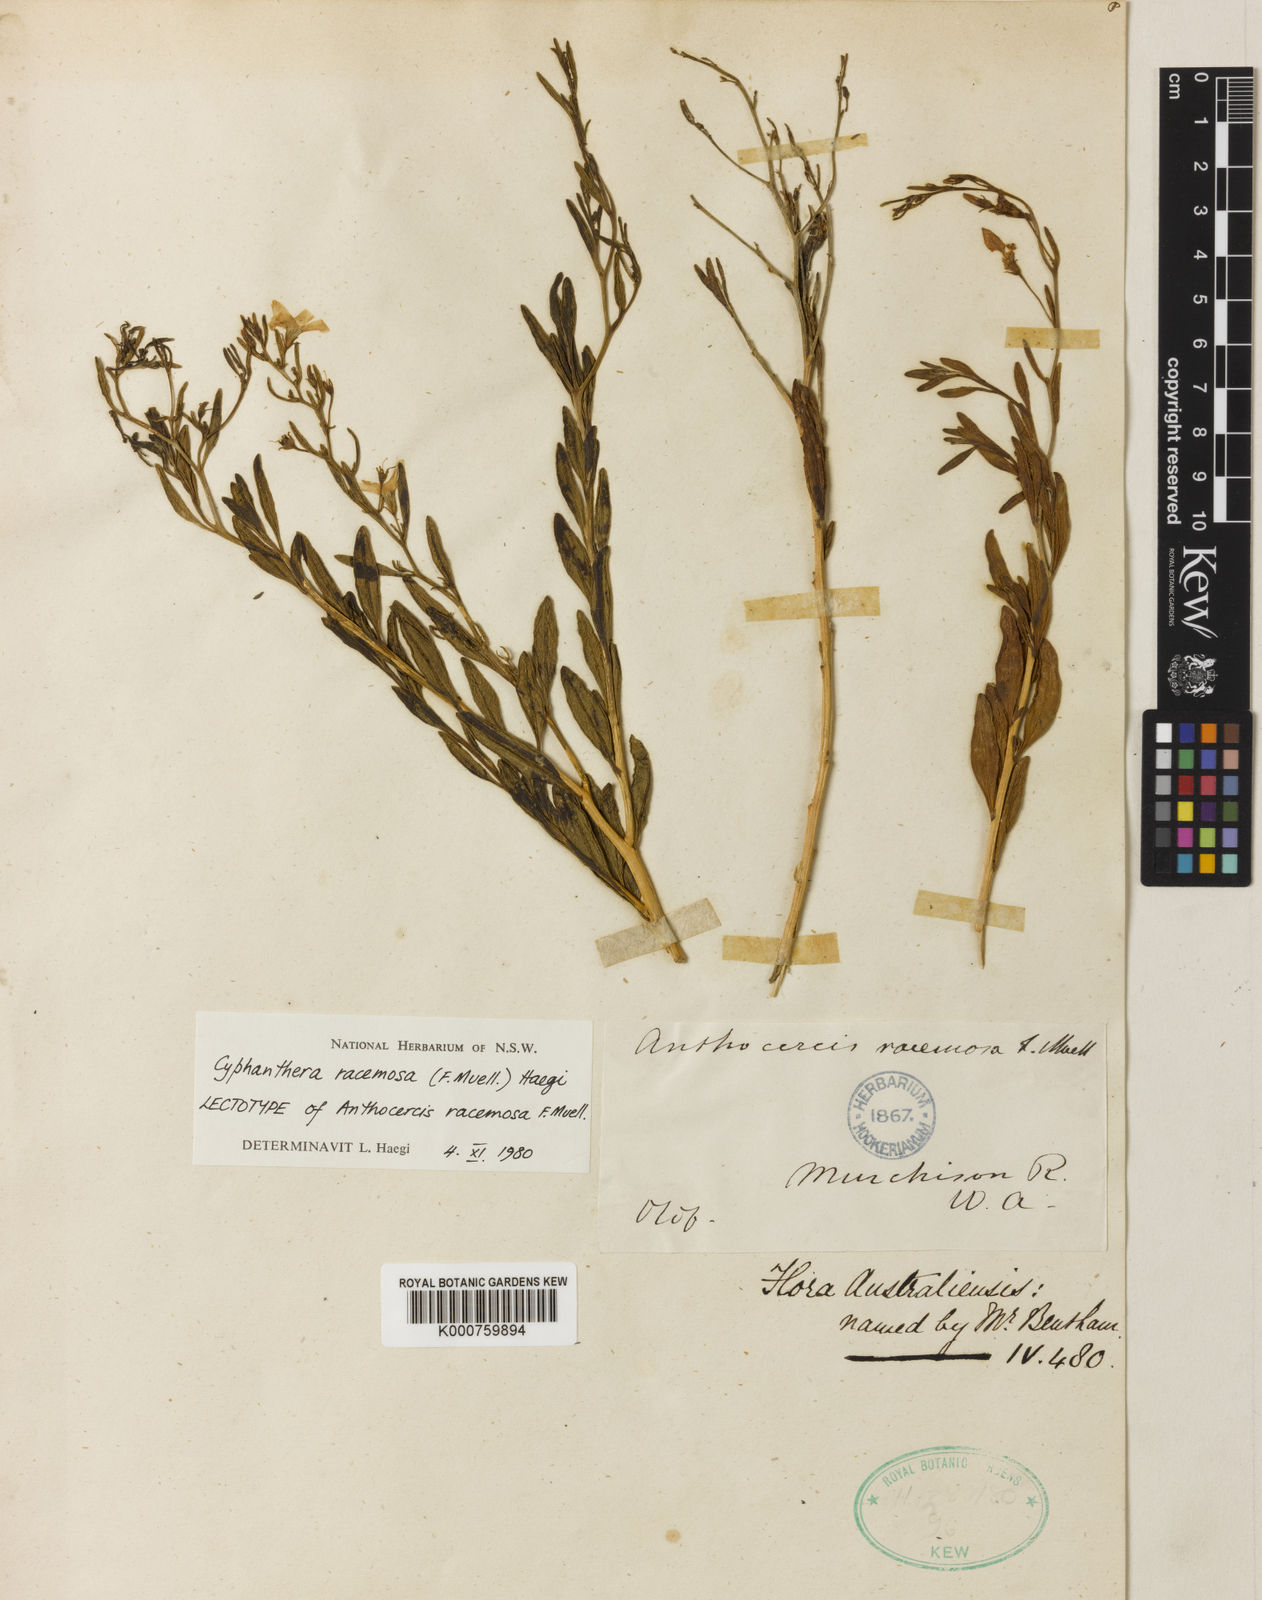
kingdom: Plantae
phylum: Tracheophyta
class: Magnoliopsida
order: Solanales
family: Solanaceae
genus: Cyphanthera
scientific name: Cyphanthera racemosa
